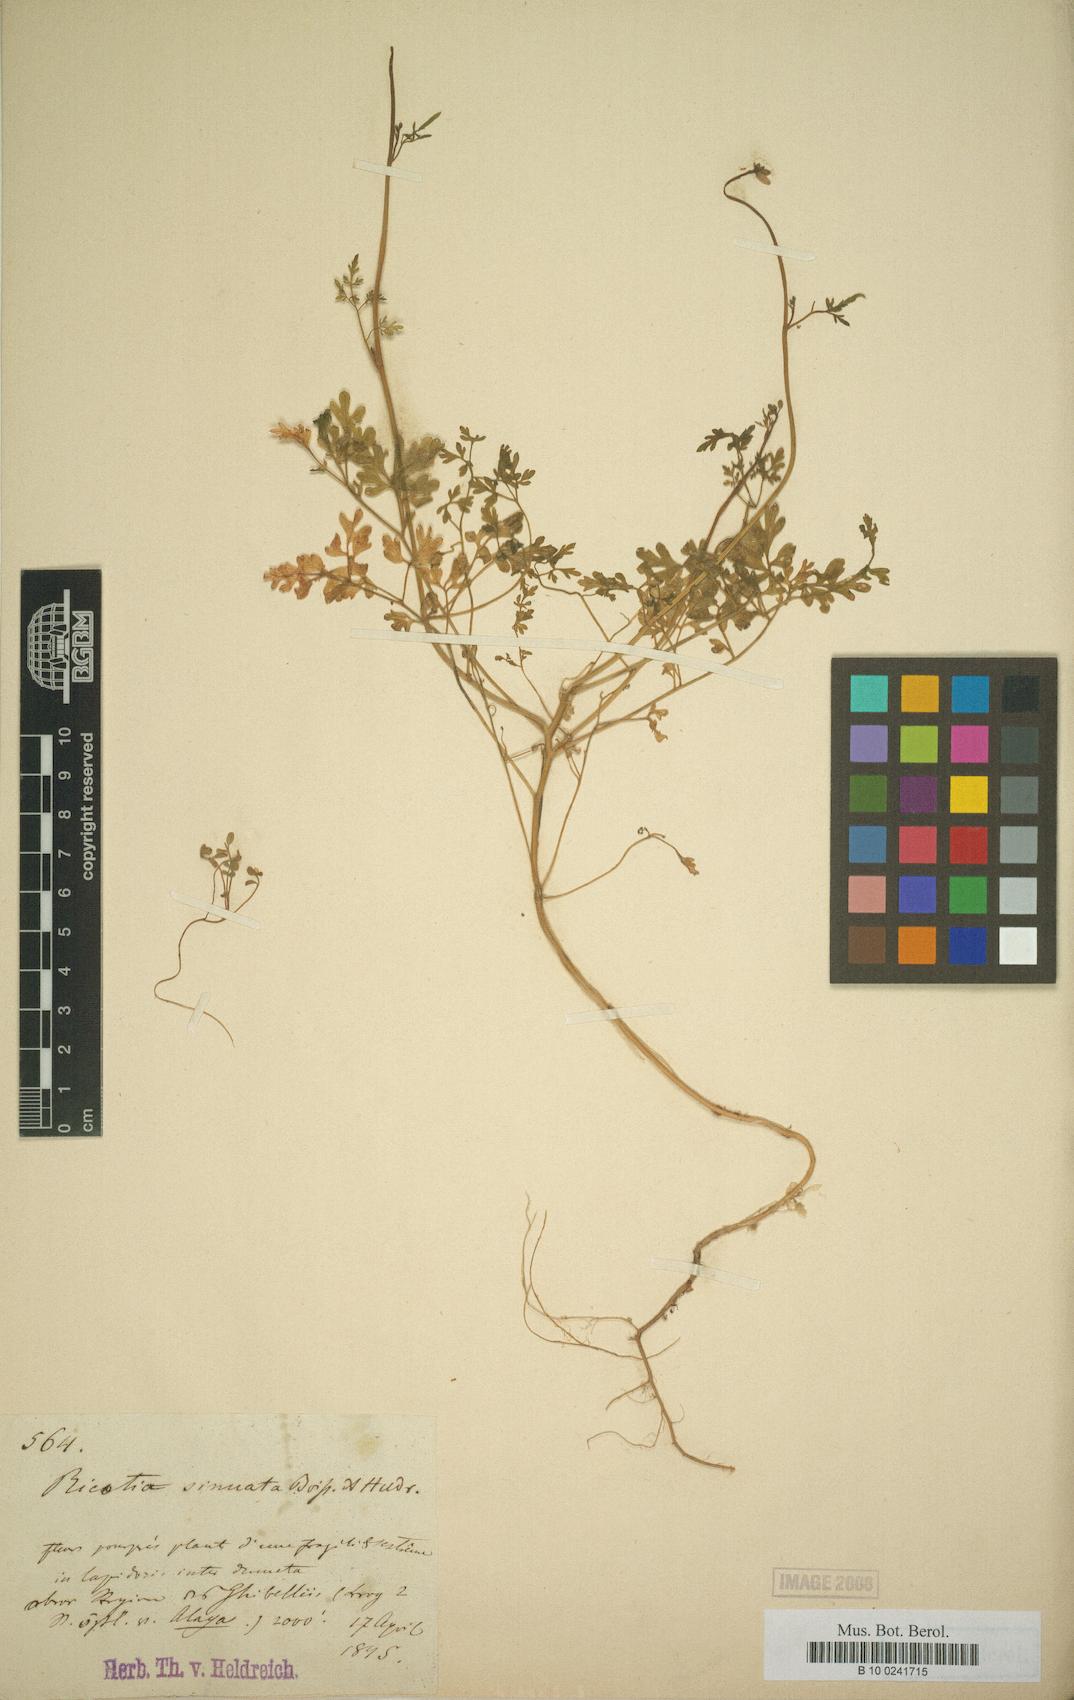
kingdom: Plantae
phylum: Tracheophyta
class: Magnoliopsida
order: Brassicales
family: Brassicaceae
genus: Ricotia
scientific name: Ricotia sinuata
